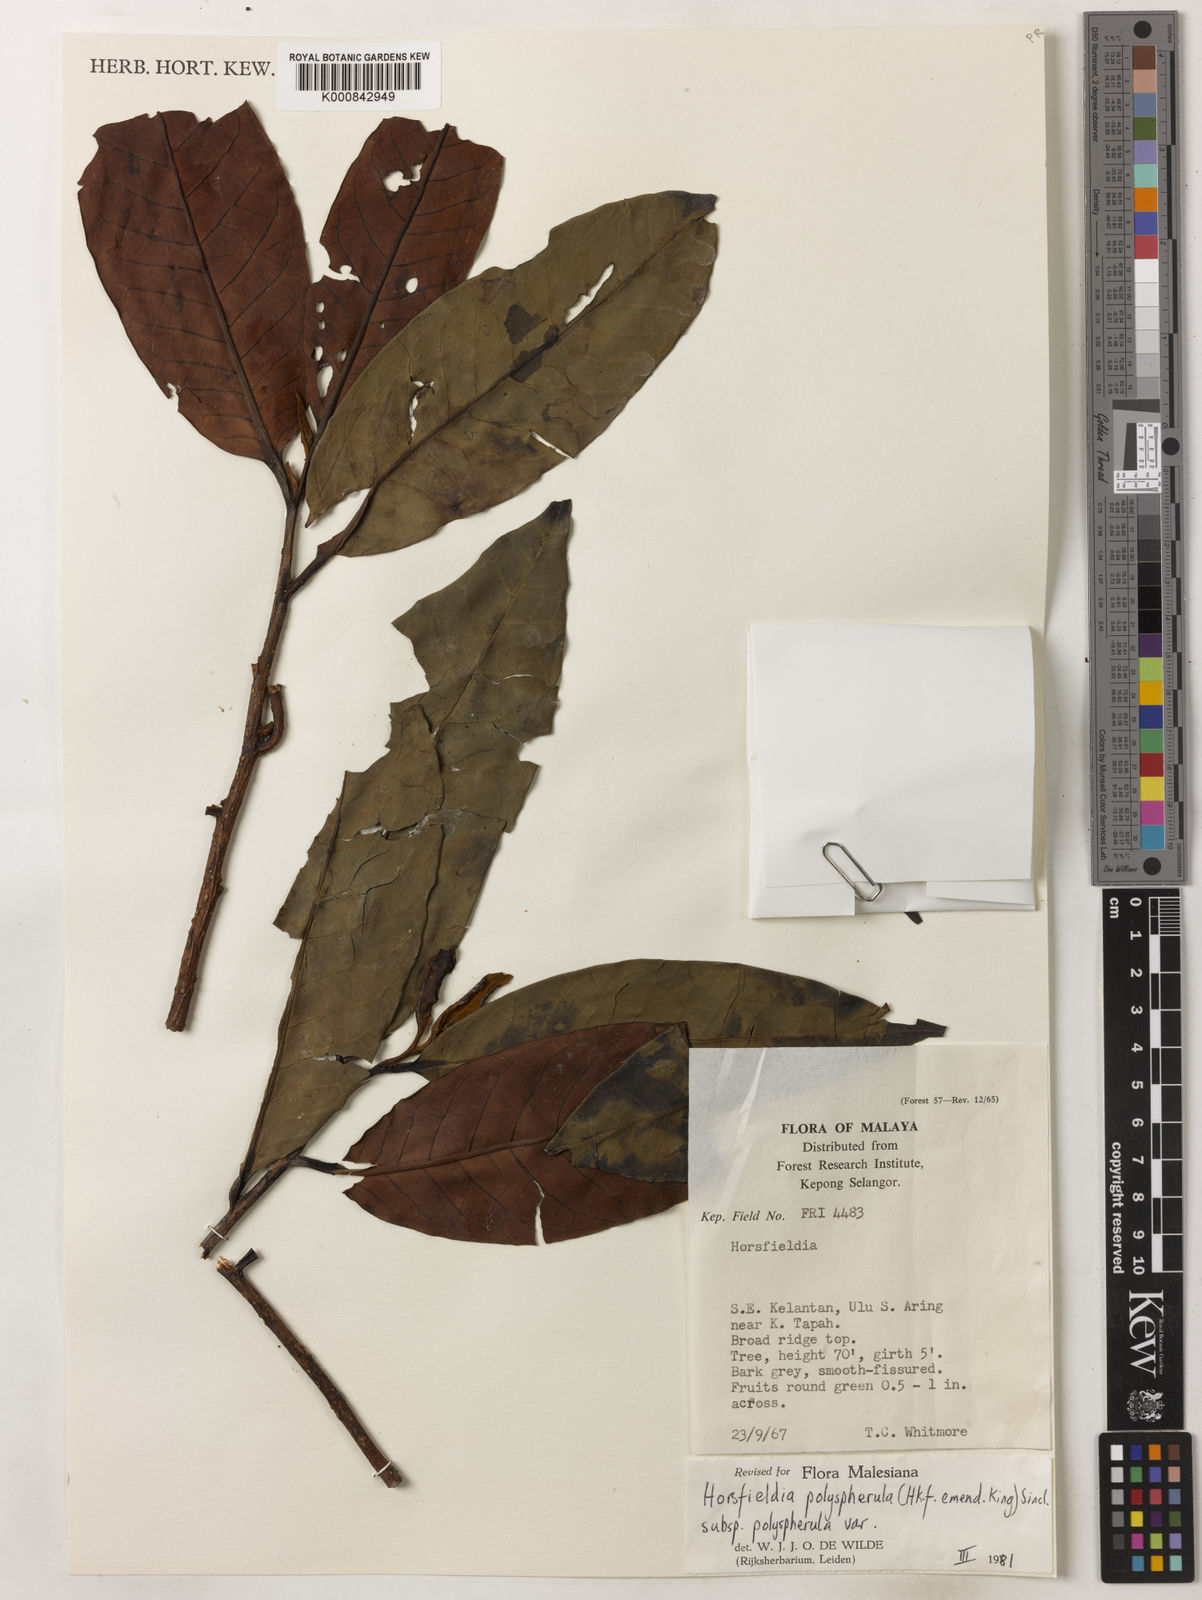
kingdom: Plantae
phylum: Tracheophyta
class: Magnoliopsida
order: Magnoliales
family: Myristicaceae
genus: Horsfieldia
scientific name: Horsfieldia
